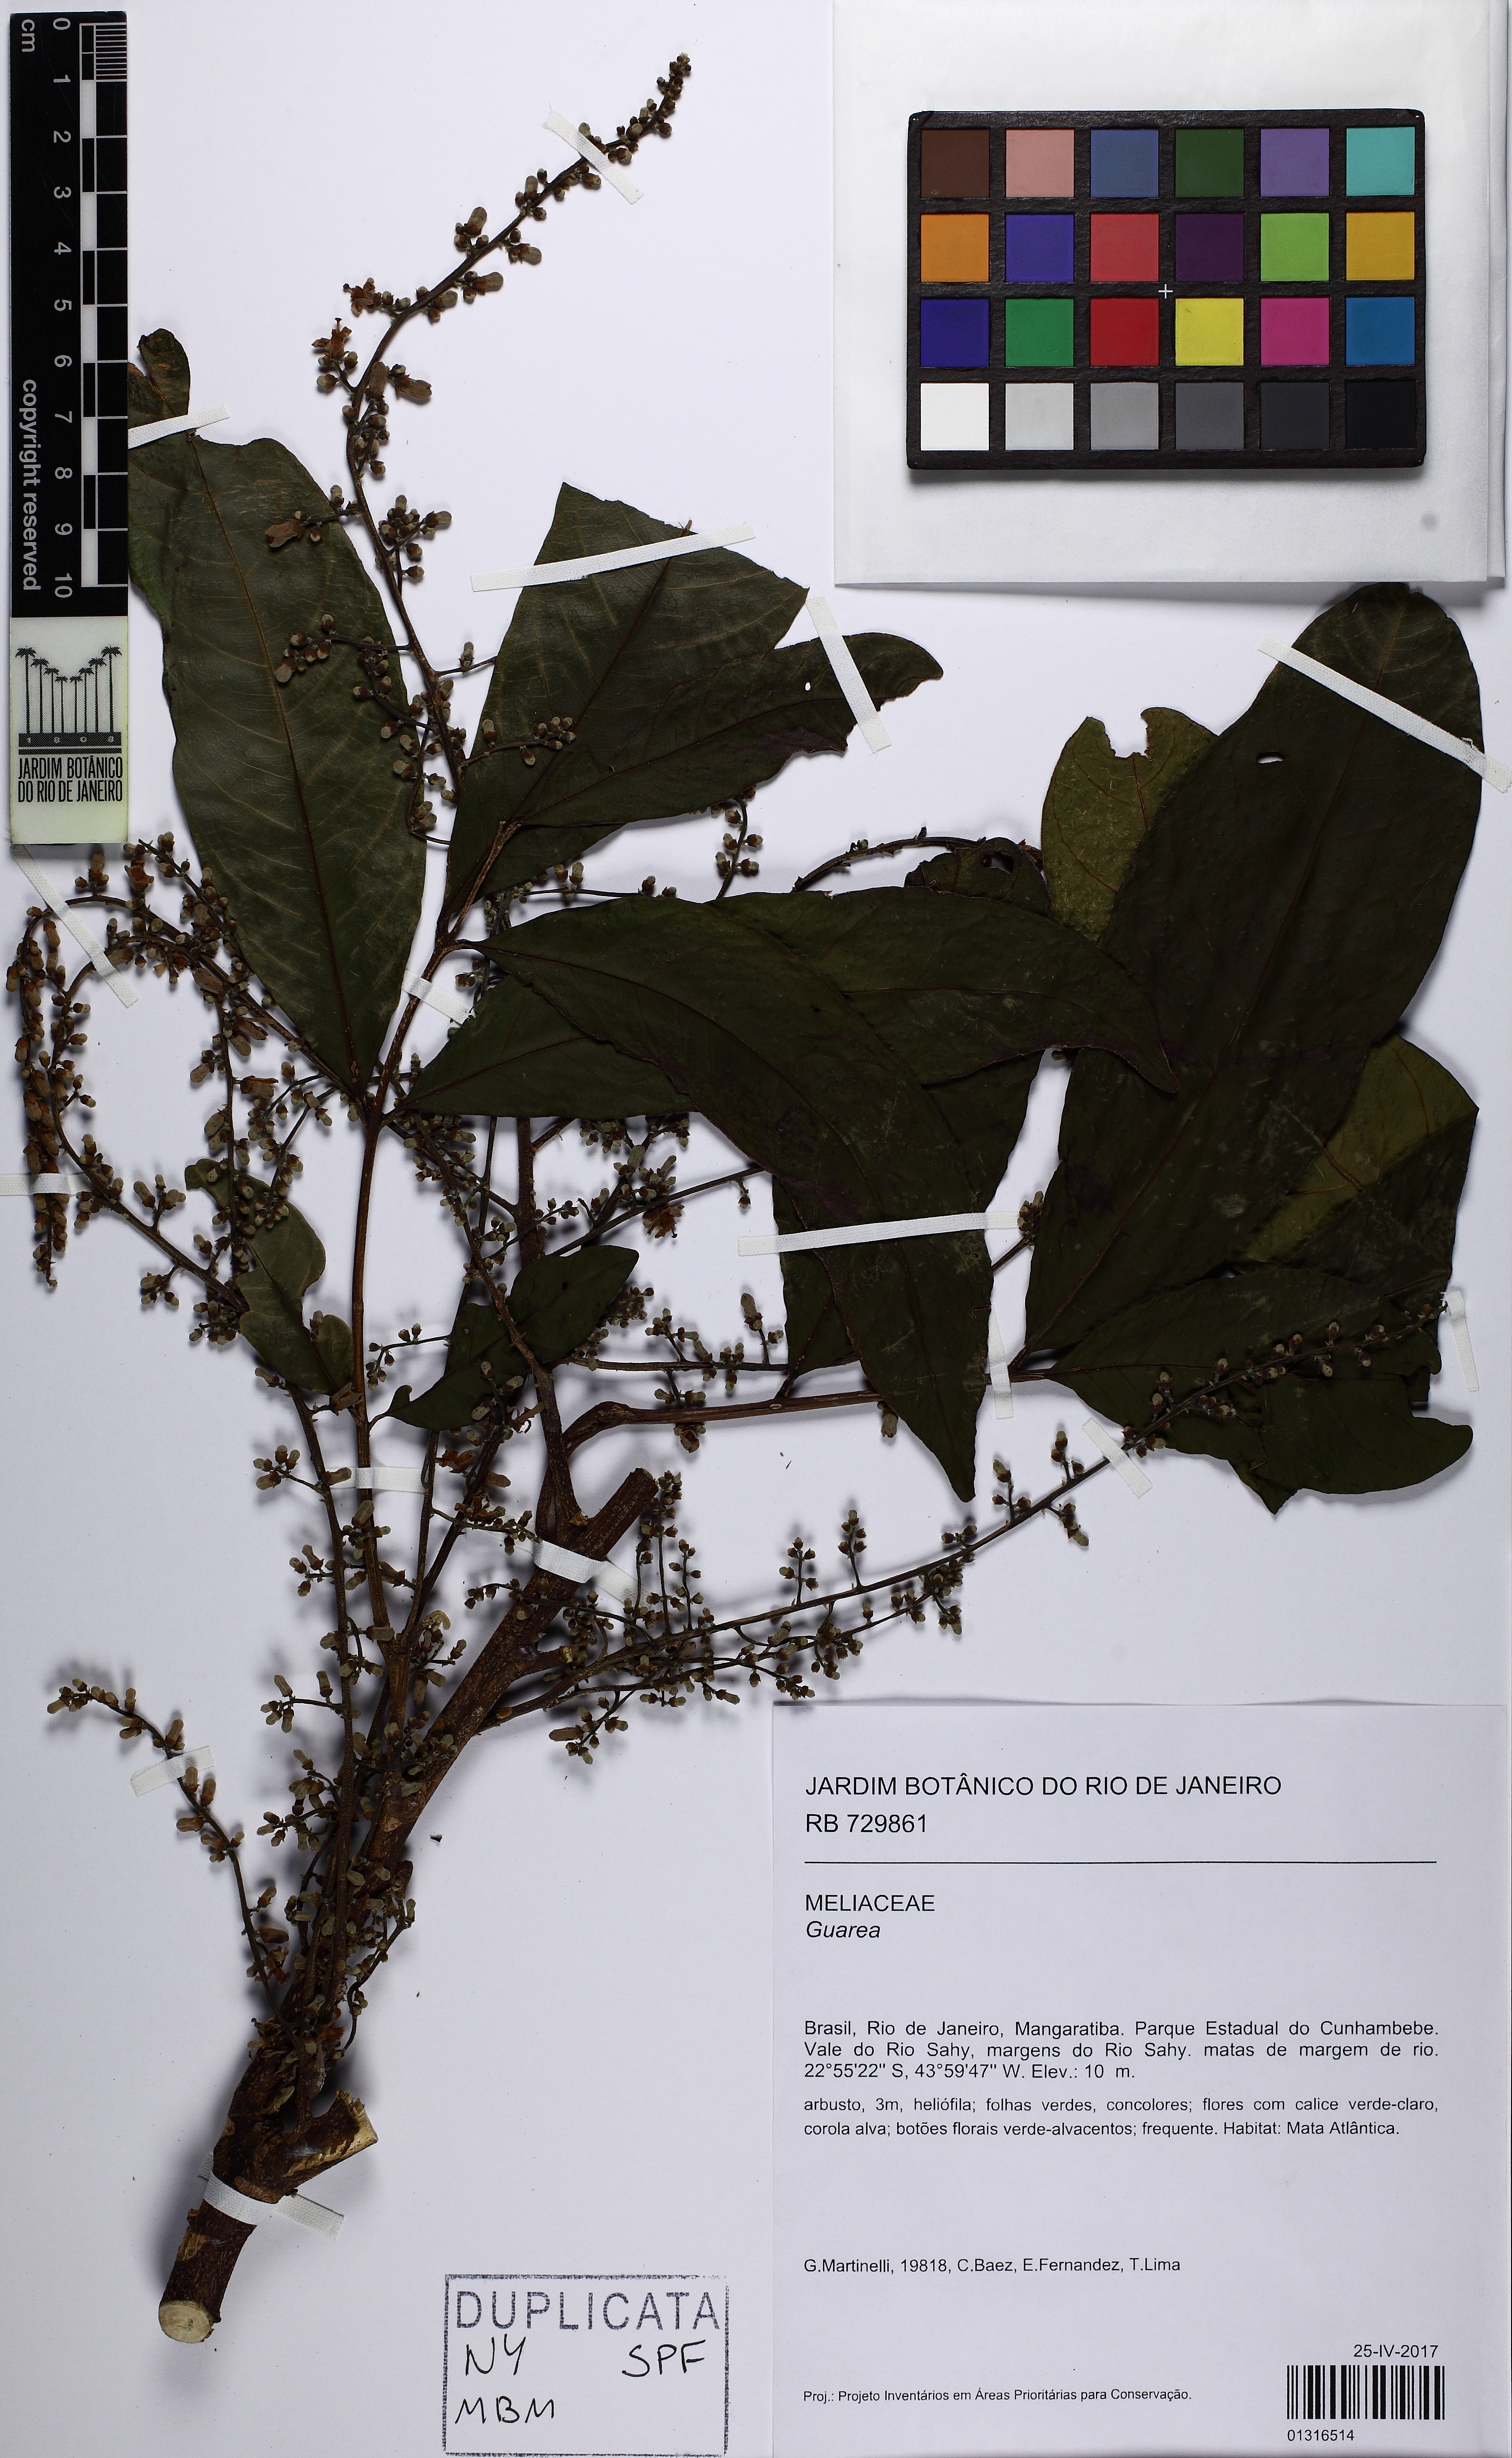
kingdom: Plantae
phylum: Tracheophyta
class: Magnoliopsida
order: Sapindales
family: Meliaceae
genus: Guarea
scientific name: Guarea
